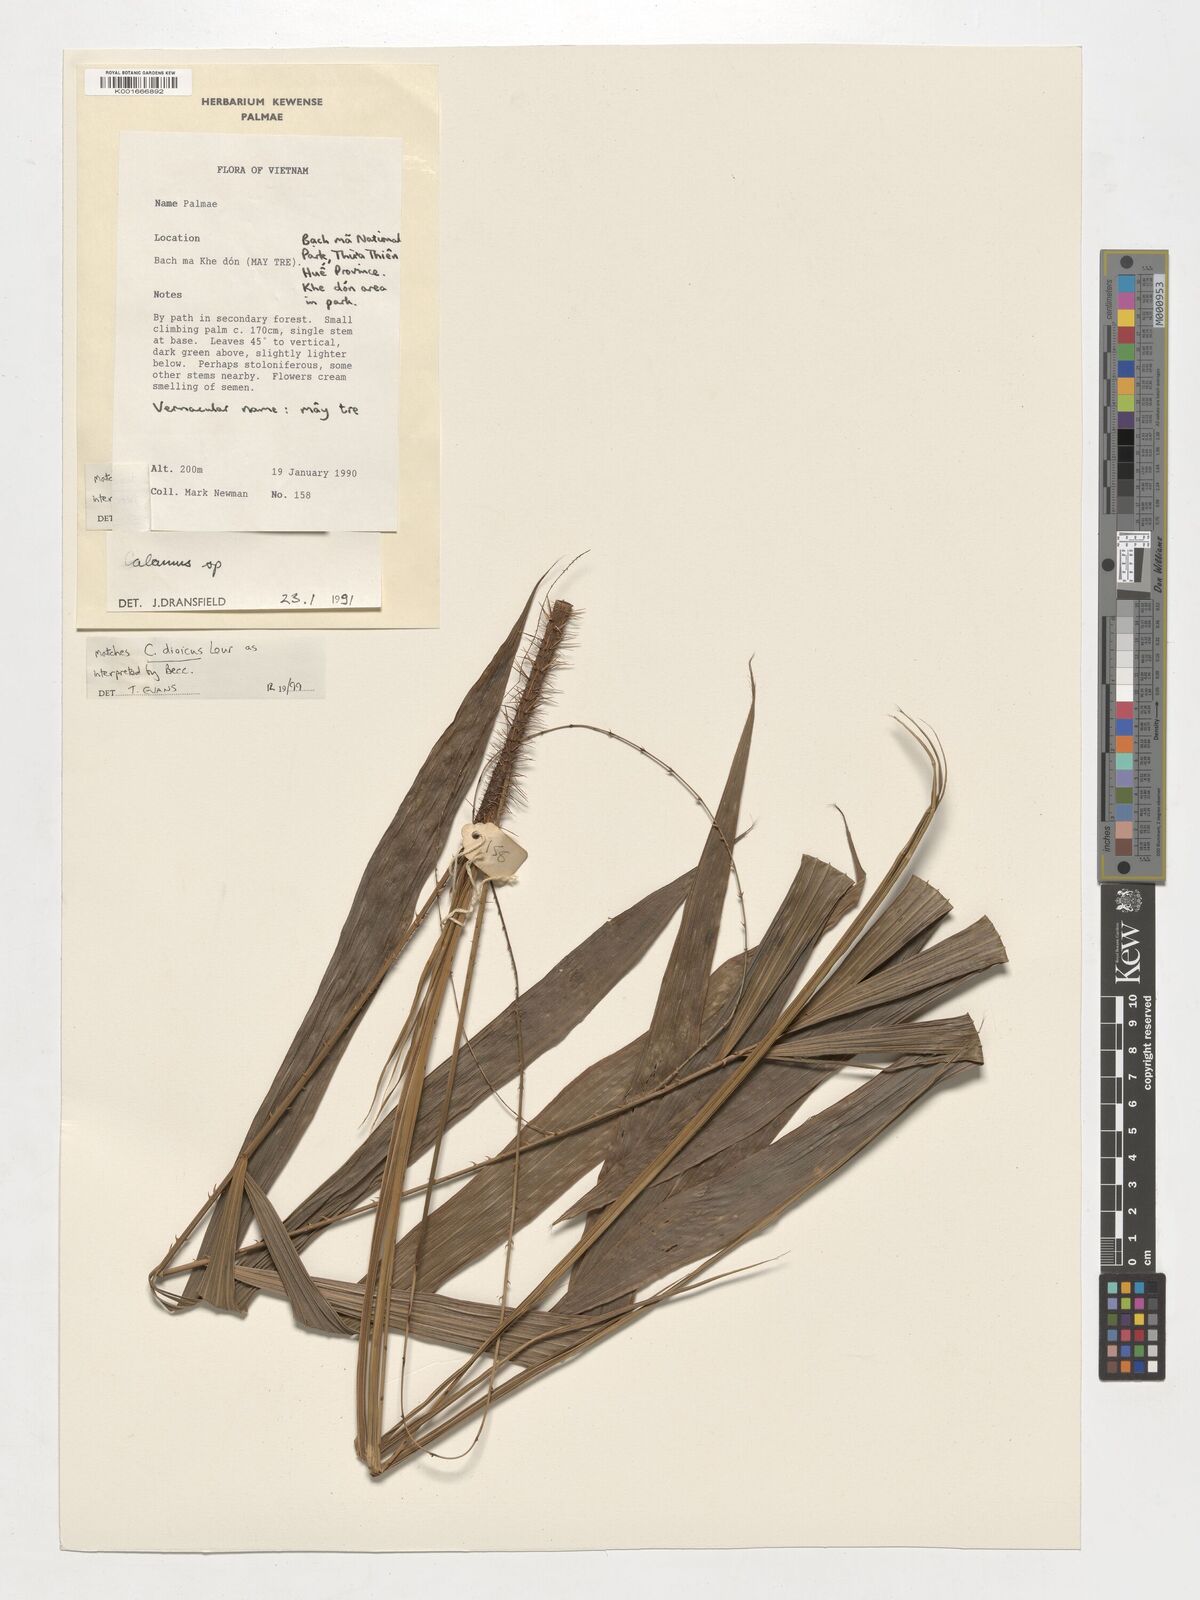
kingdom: Plantae
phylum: Tracheophyta
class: Liliopsida
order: Arecales
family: Arecaceae
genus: Calamus
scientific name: Calamus dioicus
